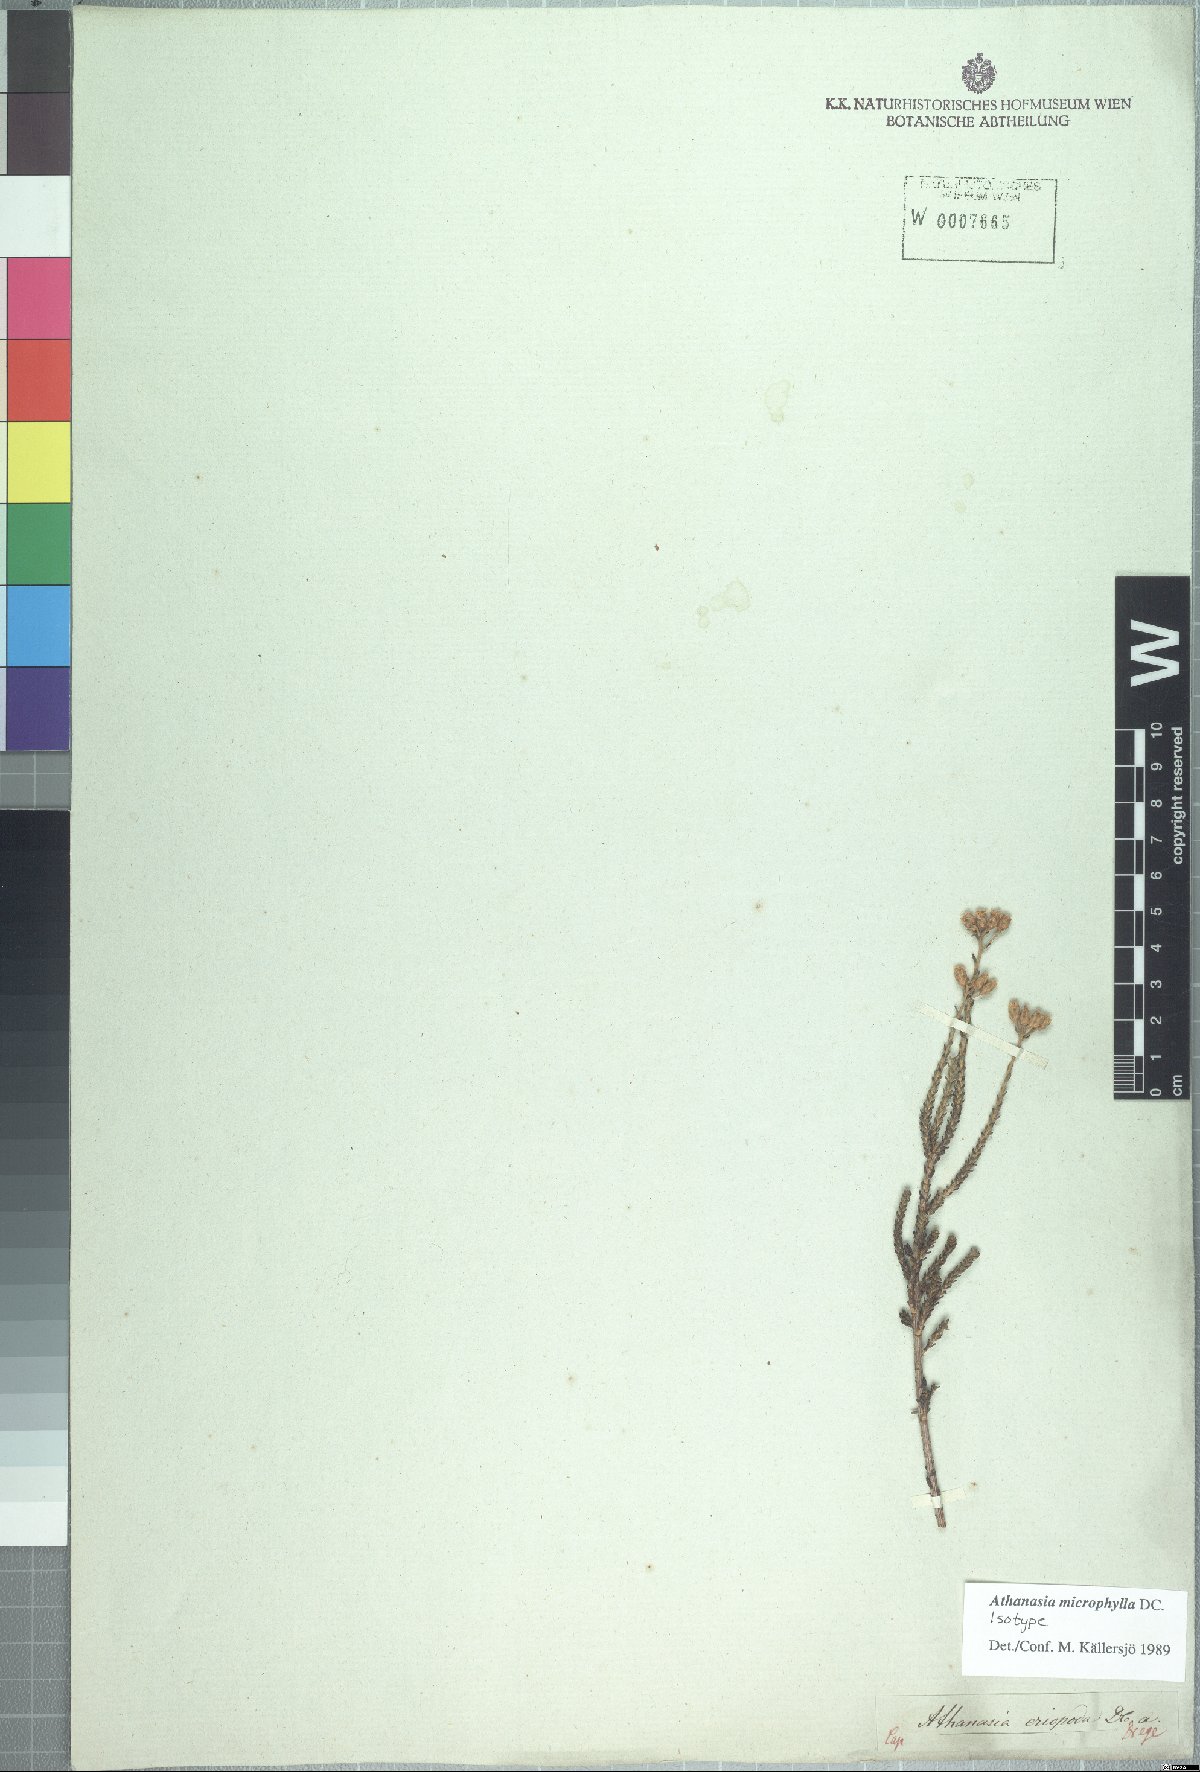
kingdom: Plantae
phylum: Tracheophyta
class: Magnoliopsida
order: Asterales
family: Asteraceae
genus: Athanasia
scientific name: Athanasia microphylla
